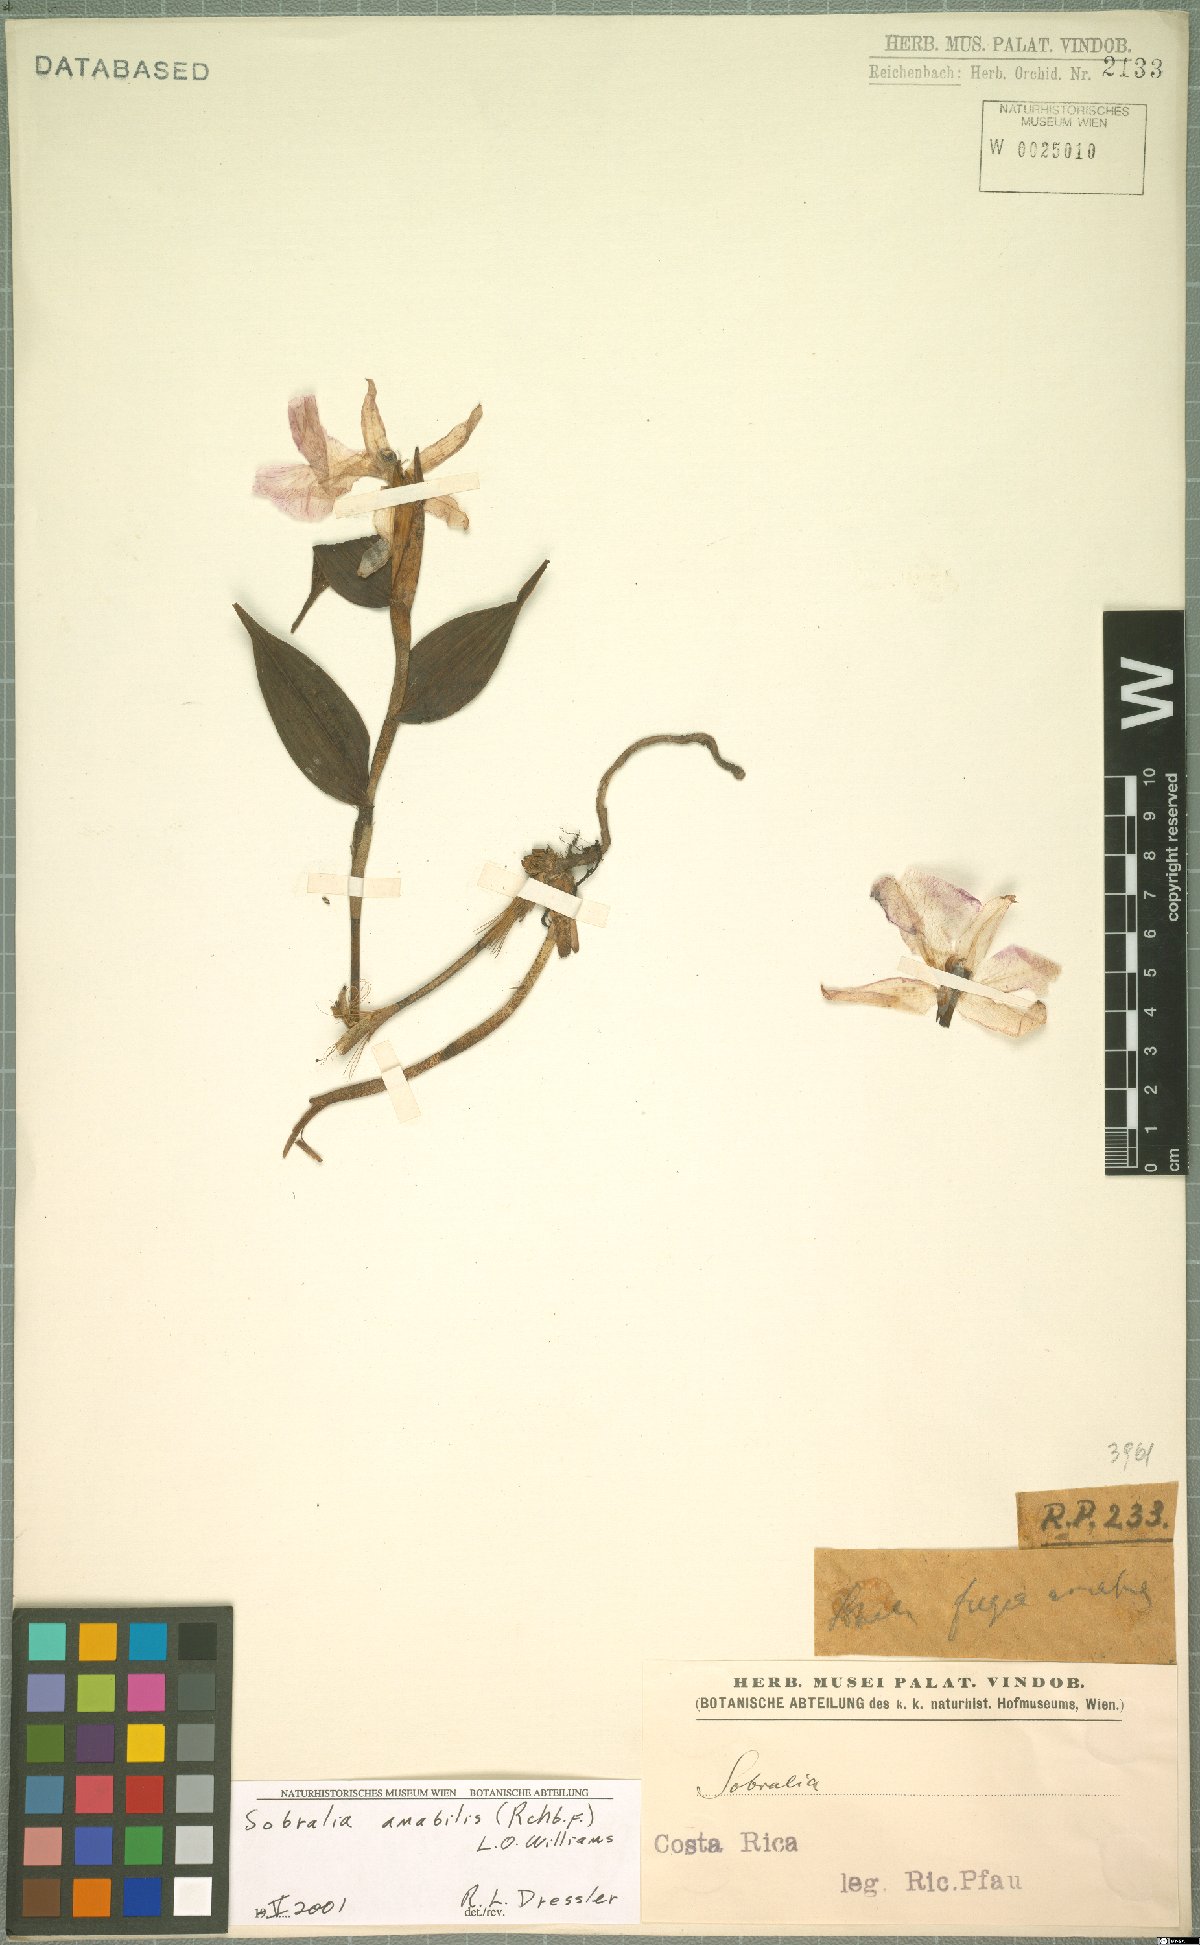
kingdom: Plantae
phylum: Tracheophyta
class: Liliopsida
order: Asparagales
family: Orchidaceae
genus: Sobralia
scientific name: Sobralia amabilis
